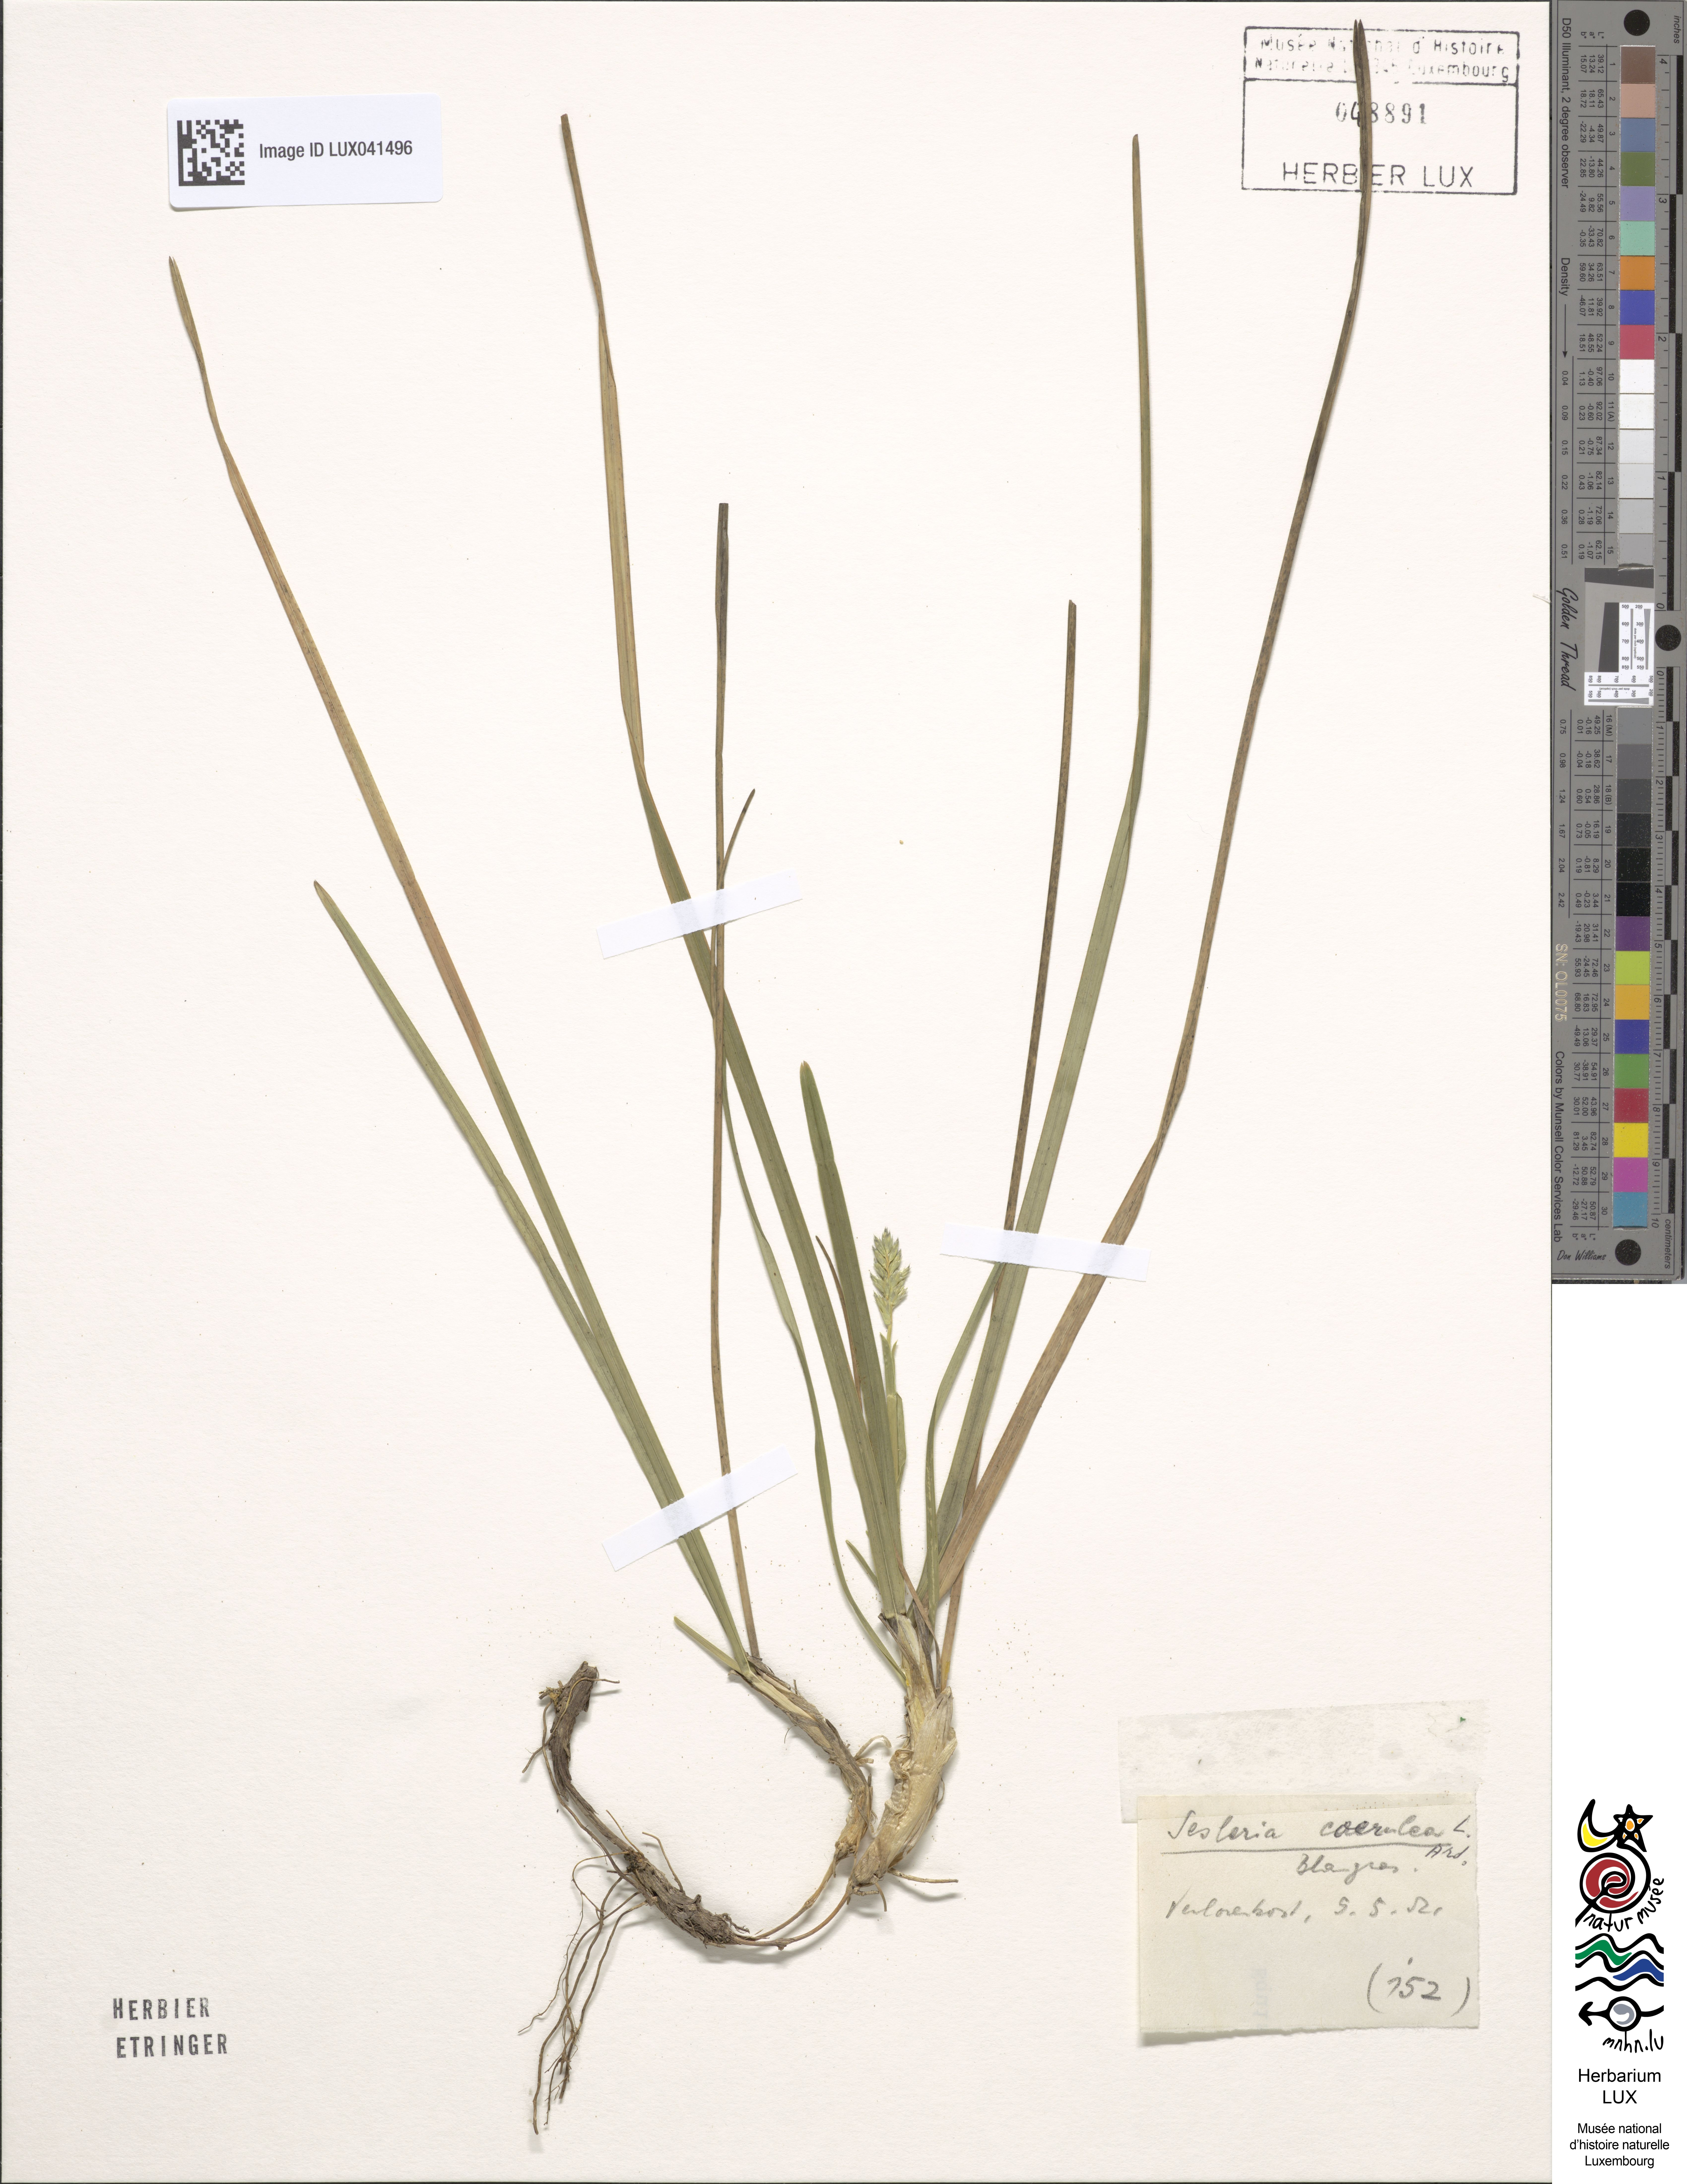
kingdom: Plantae
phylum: Tracheophyta
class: Liliopsida
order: Poales
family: Poaceae
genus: Sesleria
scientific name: Sesleria caerulea
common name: Blue moor-grass
